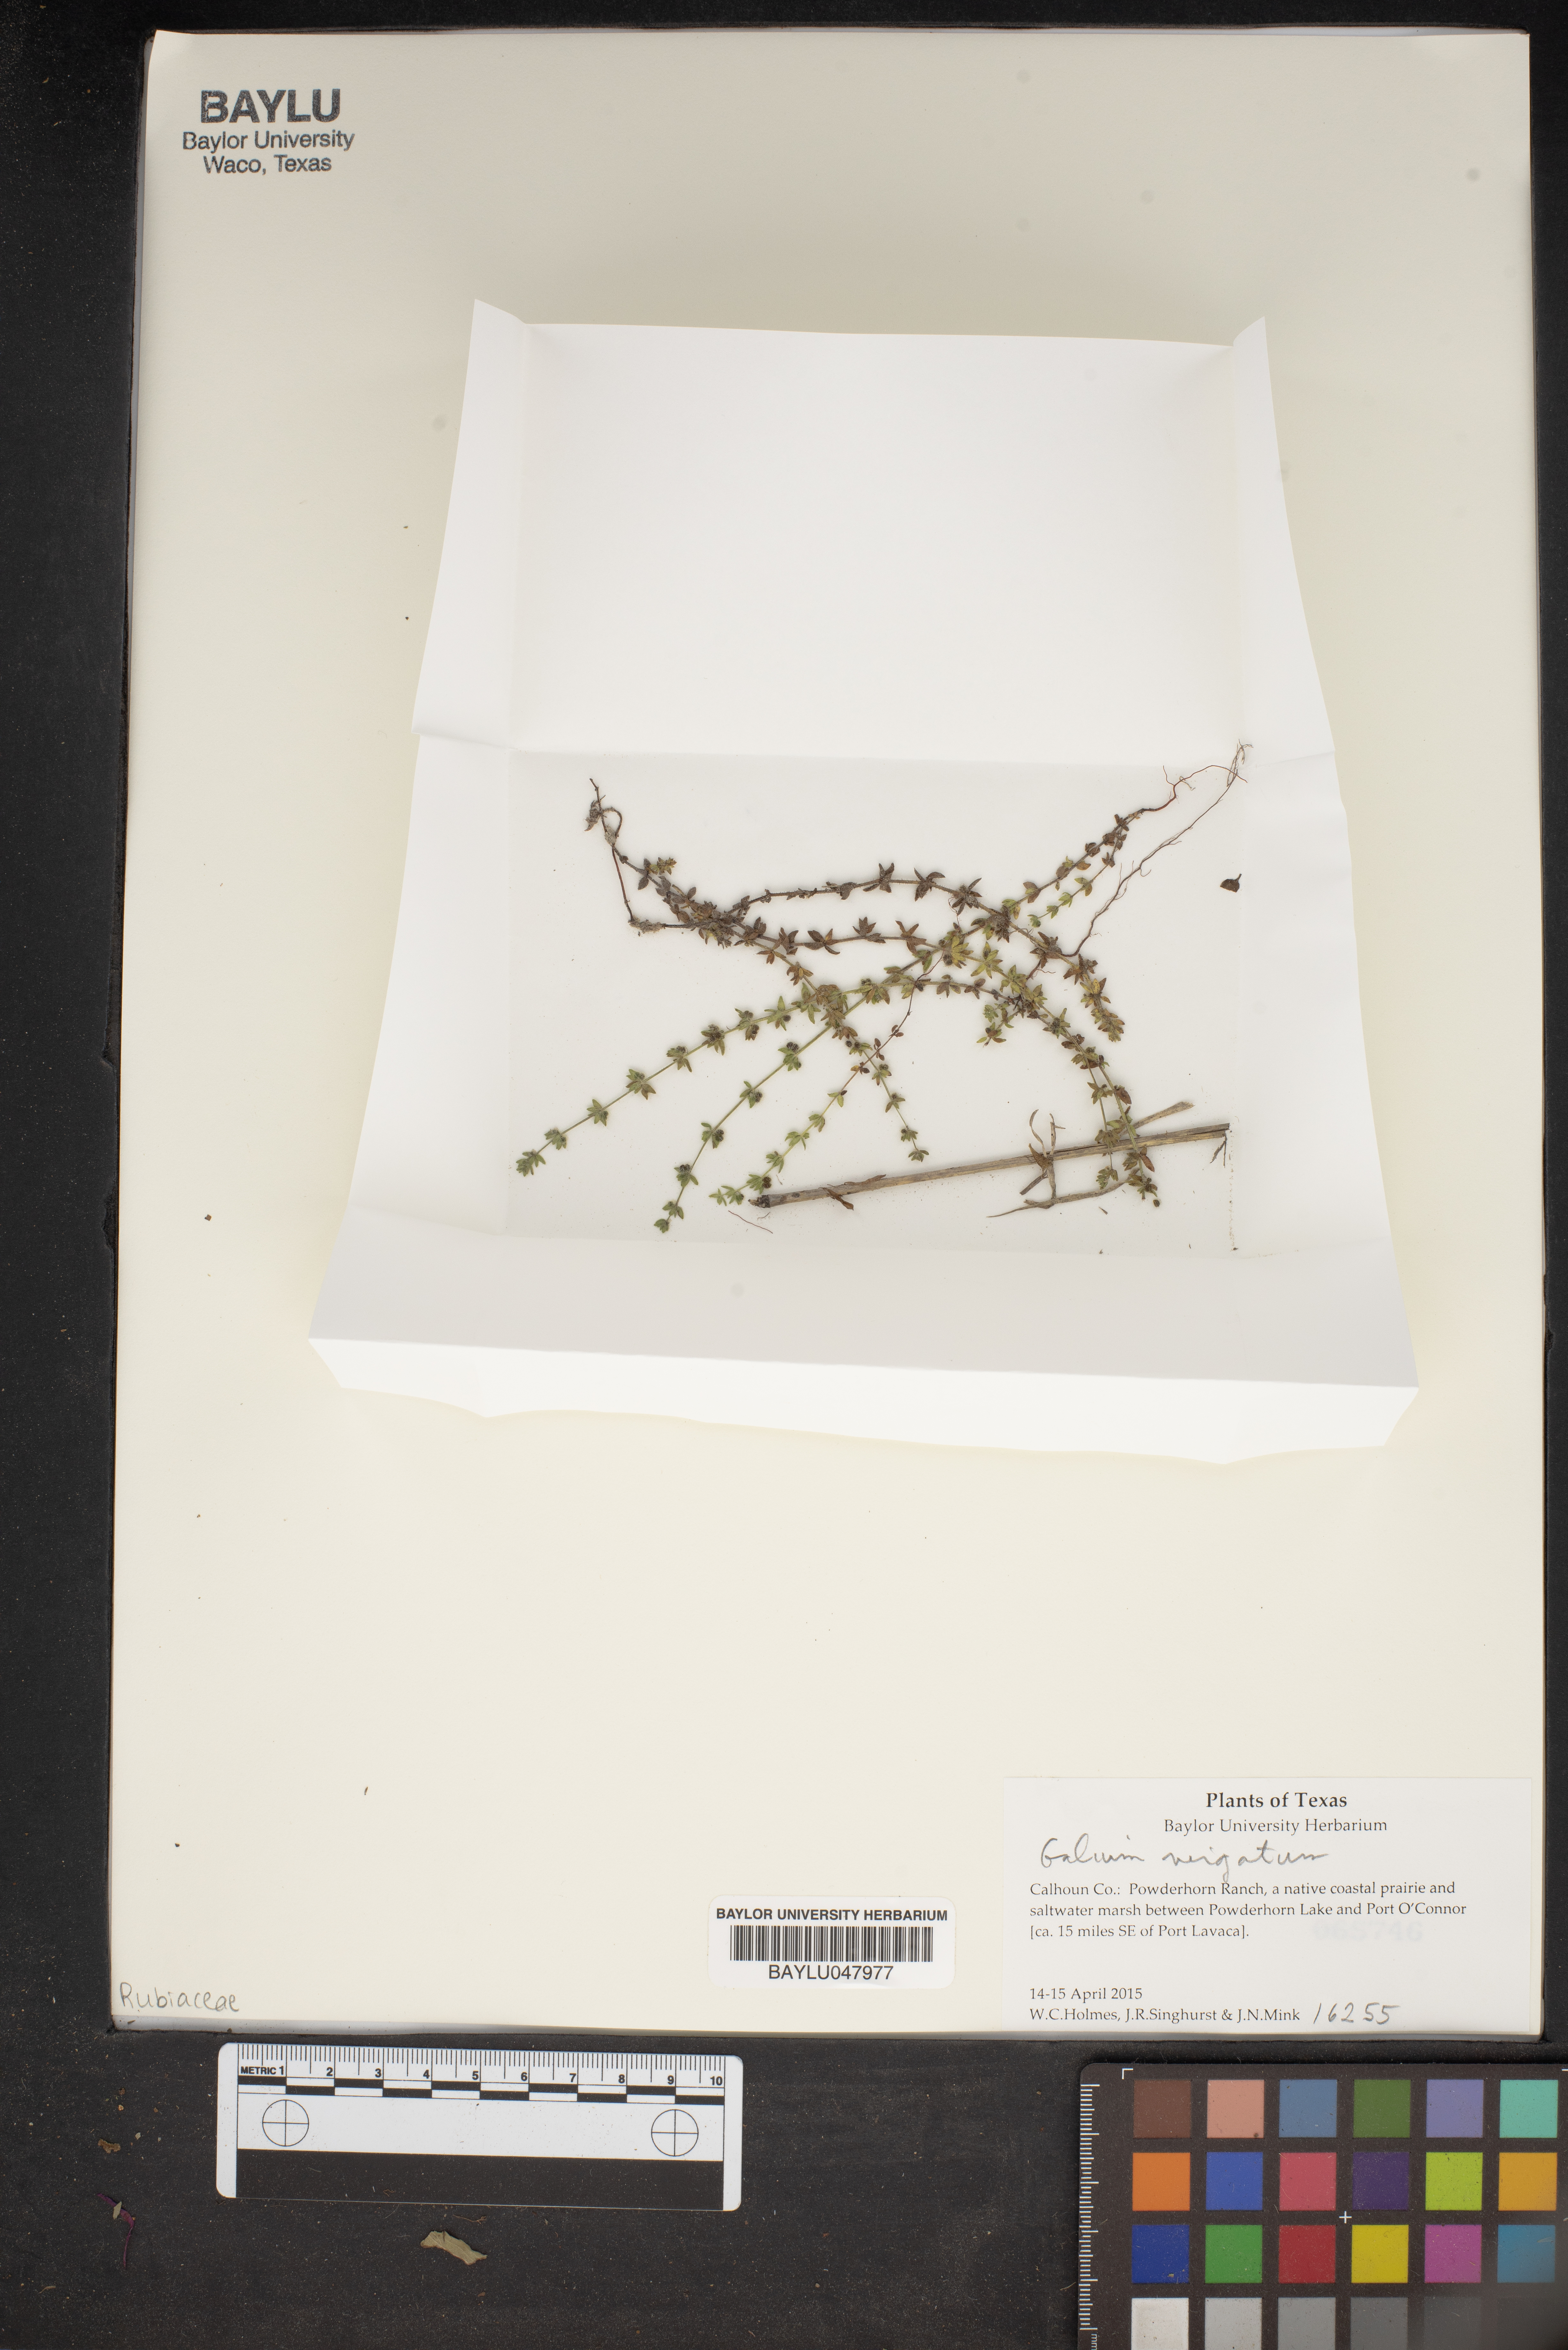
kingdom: Plantae
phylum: Tracheophyta
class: Magnoliopsida
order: Gentianales
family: Rubiaceae
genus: Galium
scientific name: Galium virgatum
